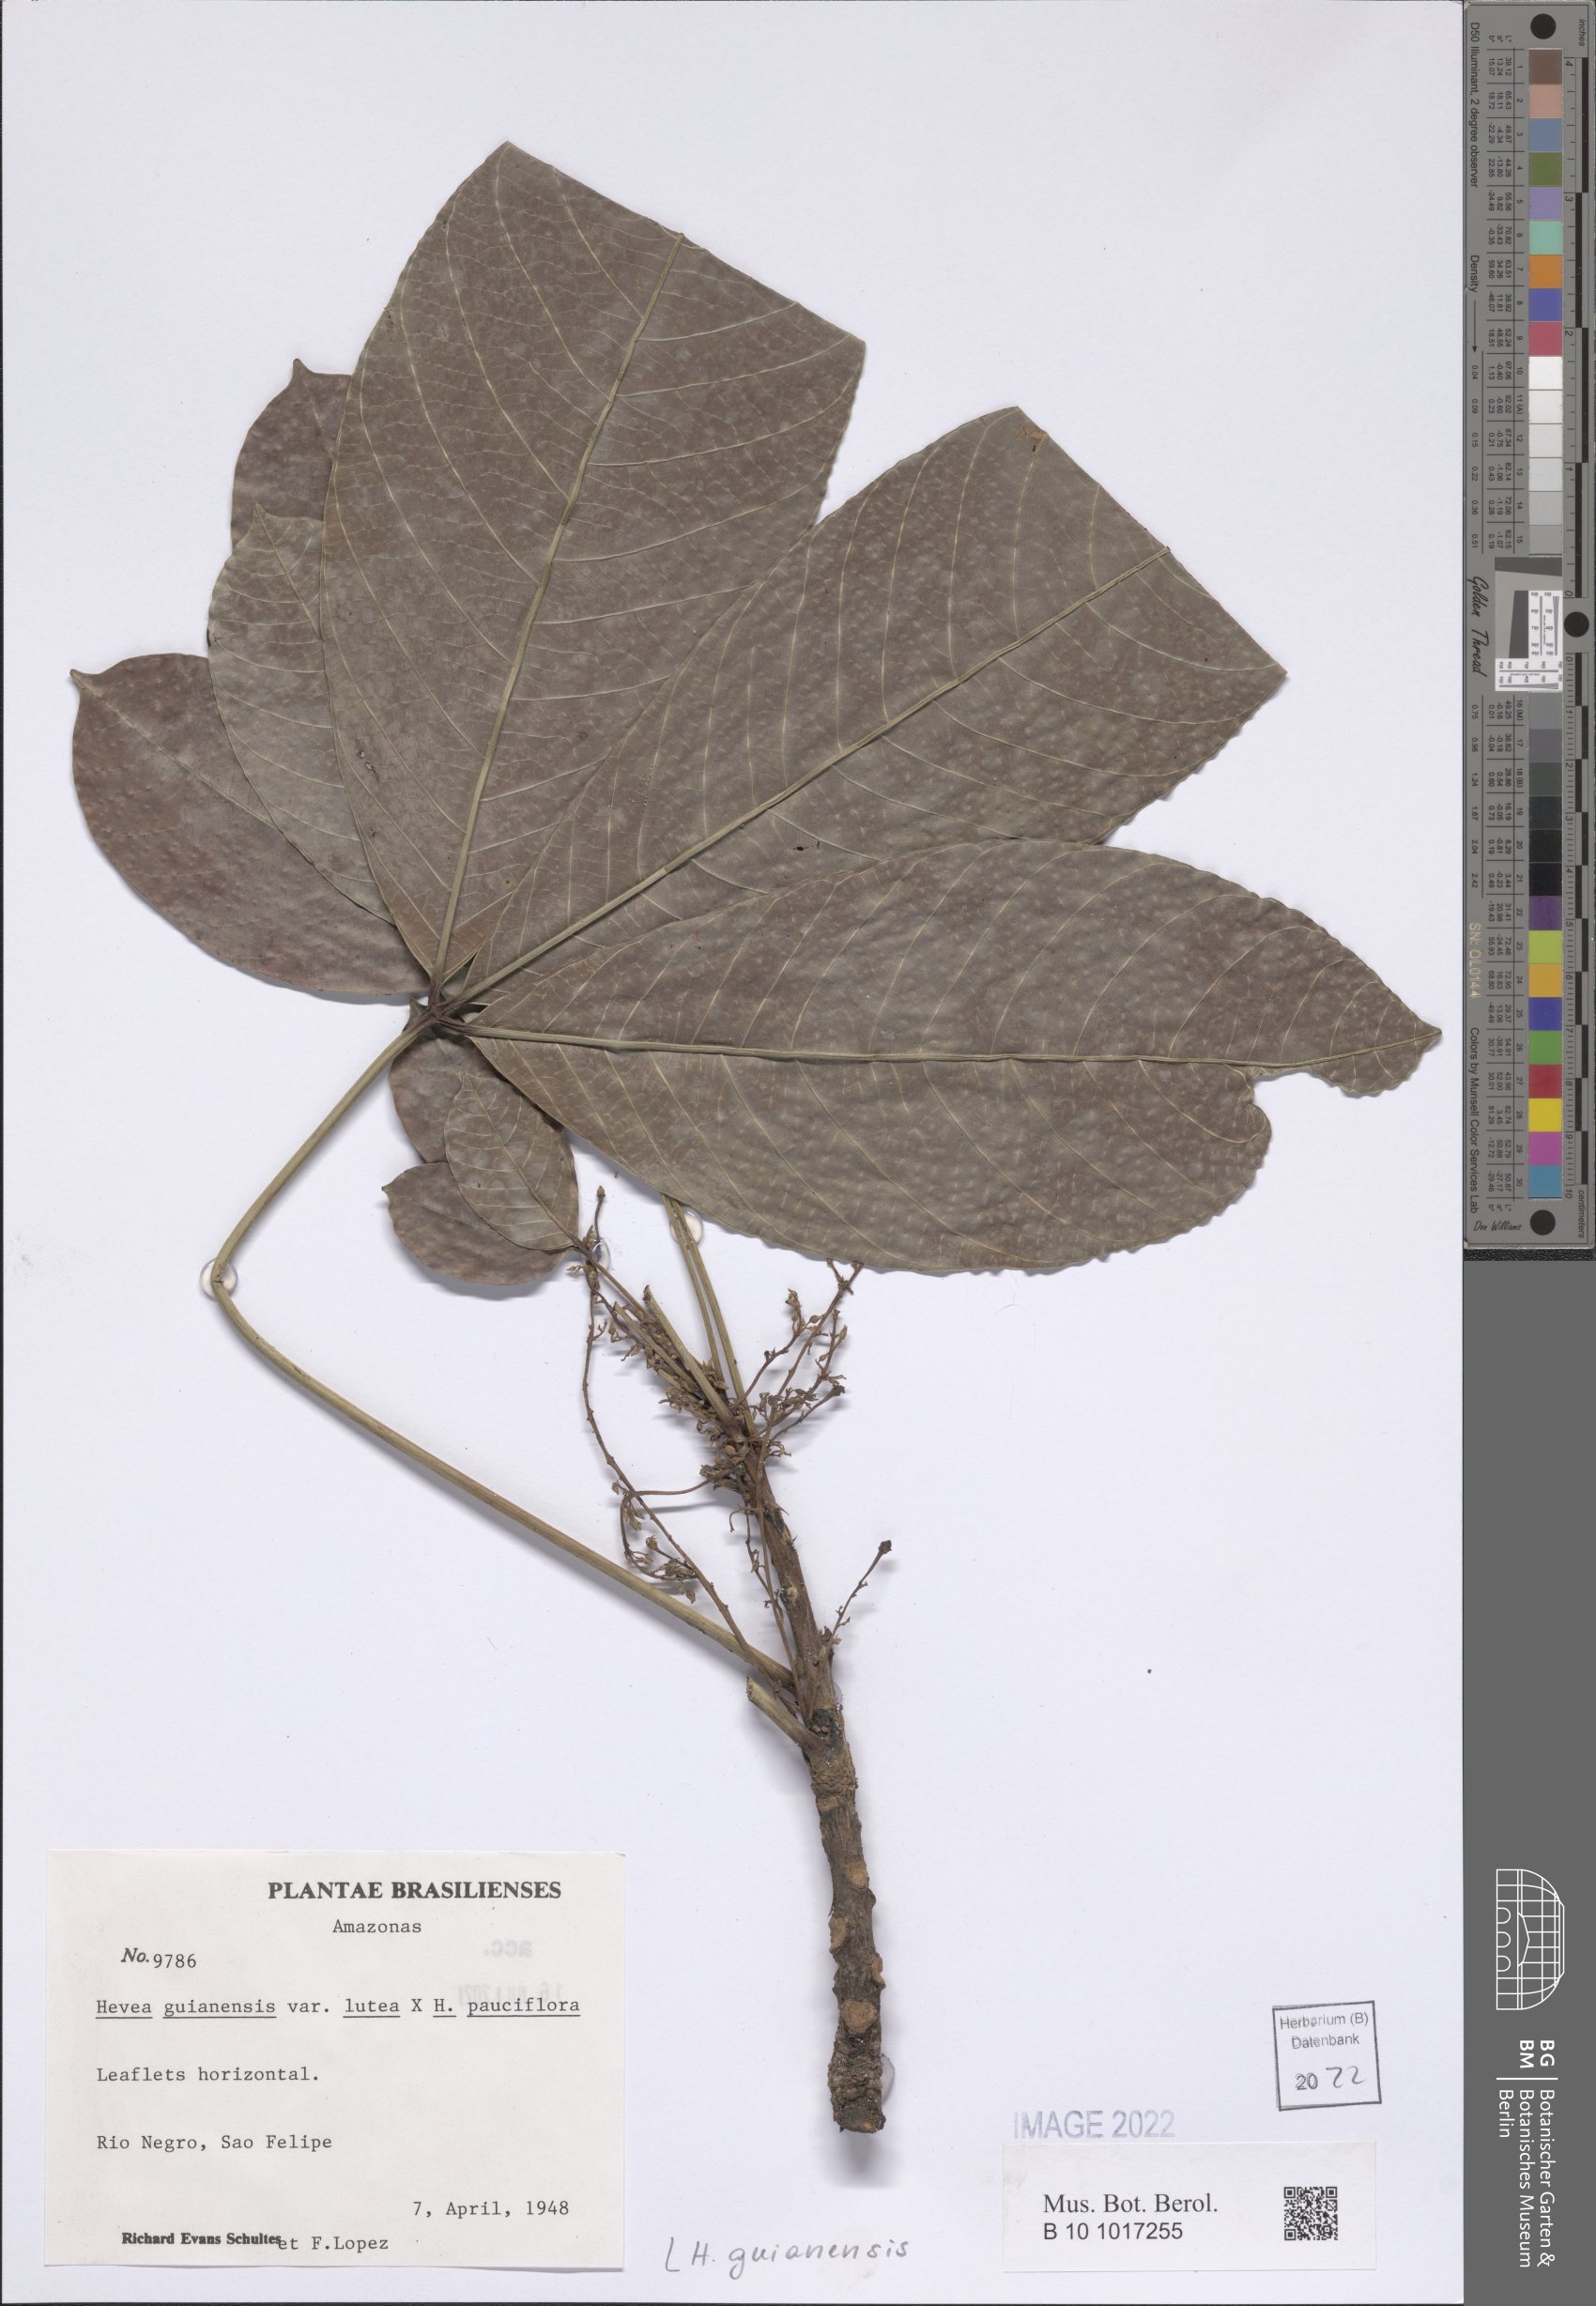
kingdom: Plantae
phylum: Tracheophyta
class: Magnoliopsida
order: Malpighiales
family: Euphorbiaceae
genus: Hevea
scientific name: Hevea guianensis
